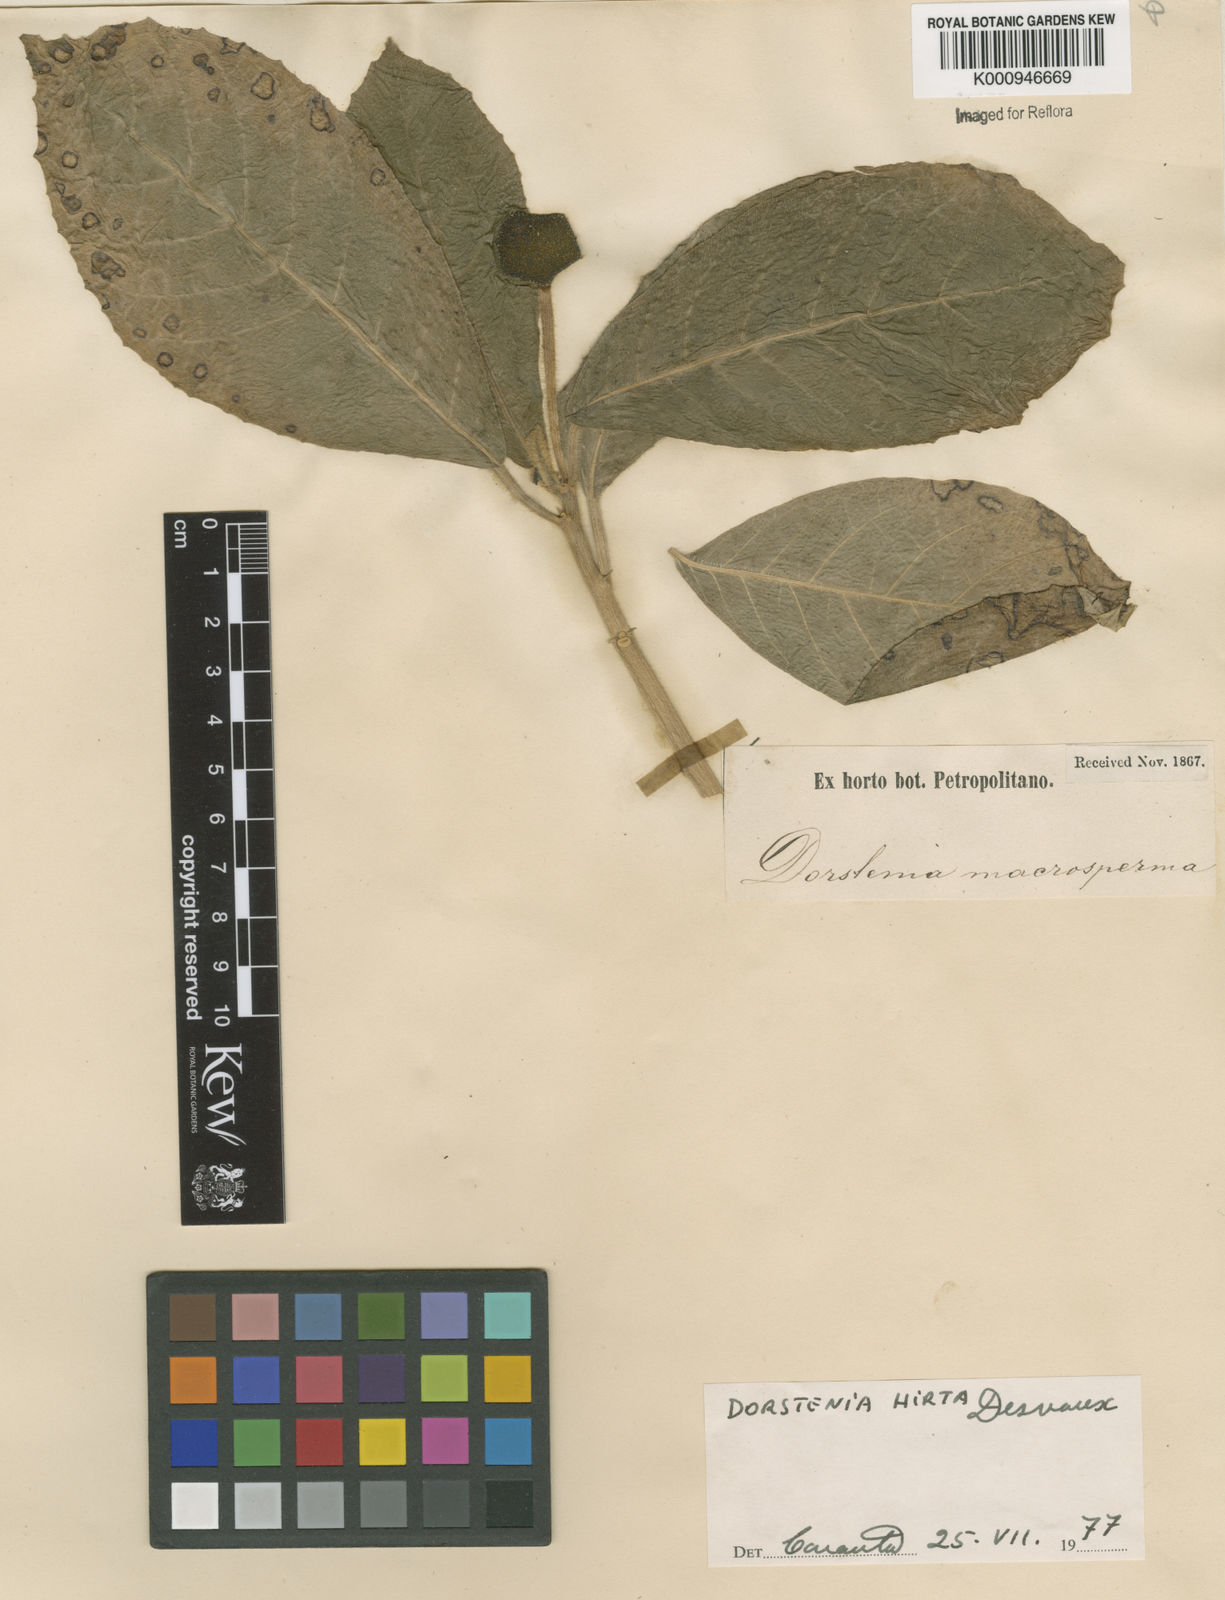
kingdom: Plantae
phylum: Tracheophyta
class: Magnoliopsida
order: Rosales
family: Moraceae
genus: Dorstenia
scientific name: Dorstenia hirta
